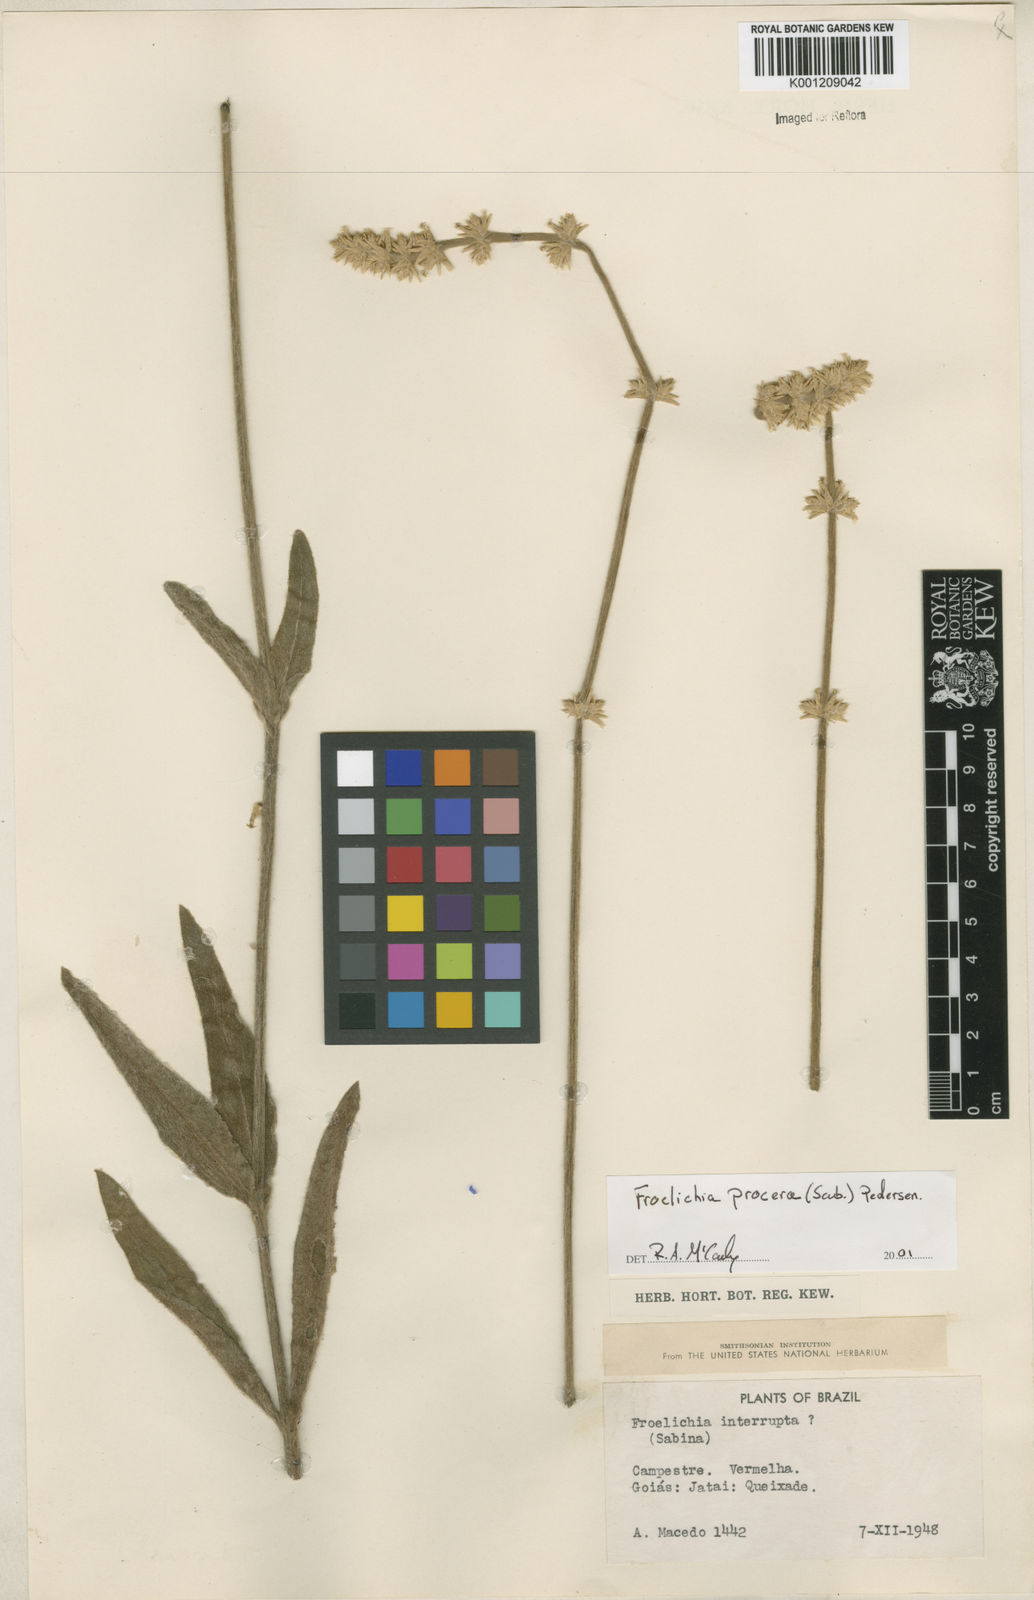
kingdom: Plantae
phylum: Tracheophyta
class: Magnoliopsida
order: Caryophyllales
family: Amaranthaceae
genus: Froelichia
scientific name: Froelichia procera
